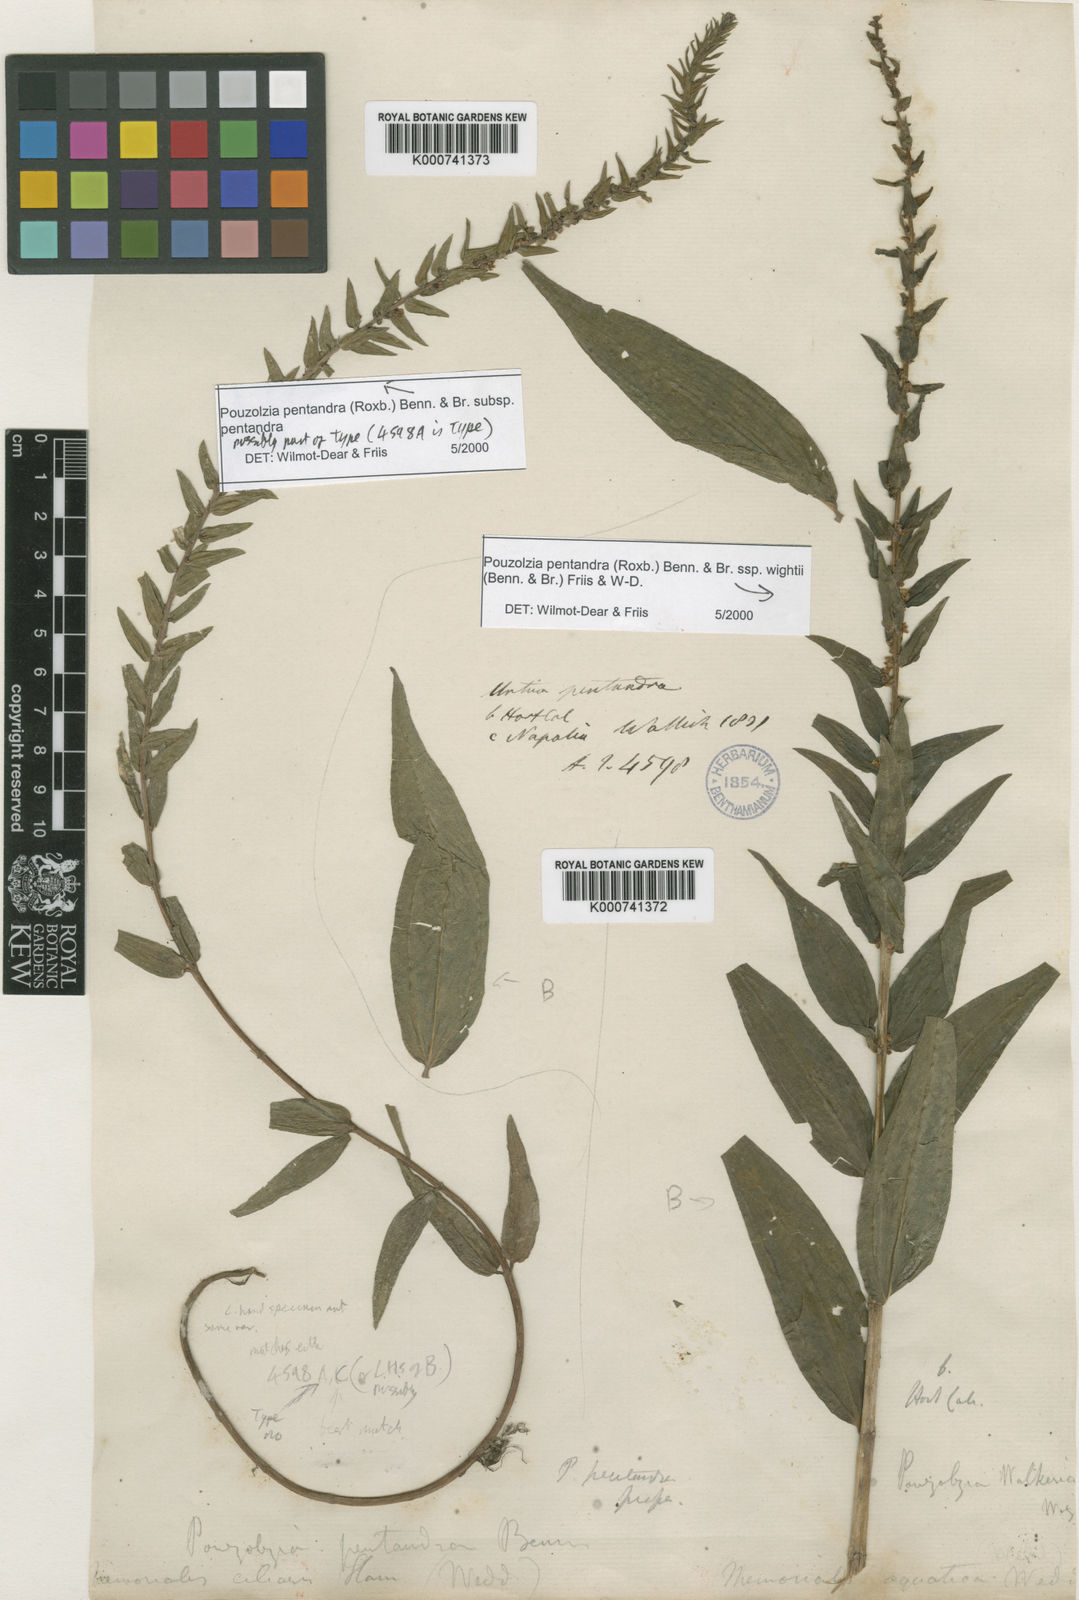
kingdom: Plantae
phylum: Tracheophyta
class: Magnoliopsida
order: Rosales
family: Urticaceae
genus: Gonostegia
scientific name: Gonostegia pentandra
